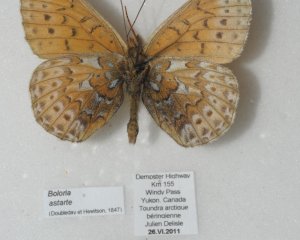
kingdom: Animalia
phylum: Arthropoda
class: Insecta
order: Lepidoptera
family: Nymphalidae
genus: Clossiana
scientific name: Clossiana astarte
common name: Astarte Fritillary
